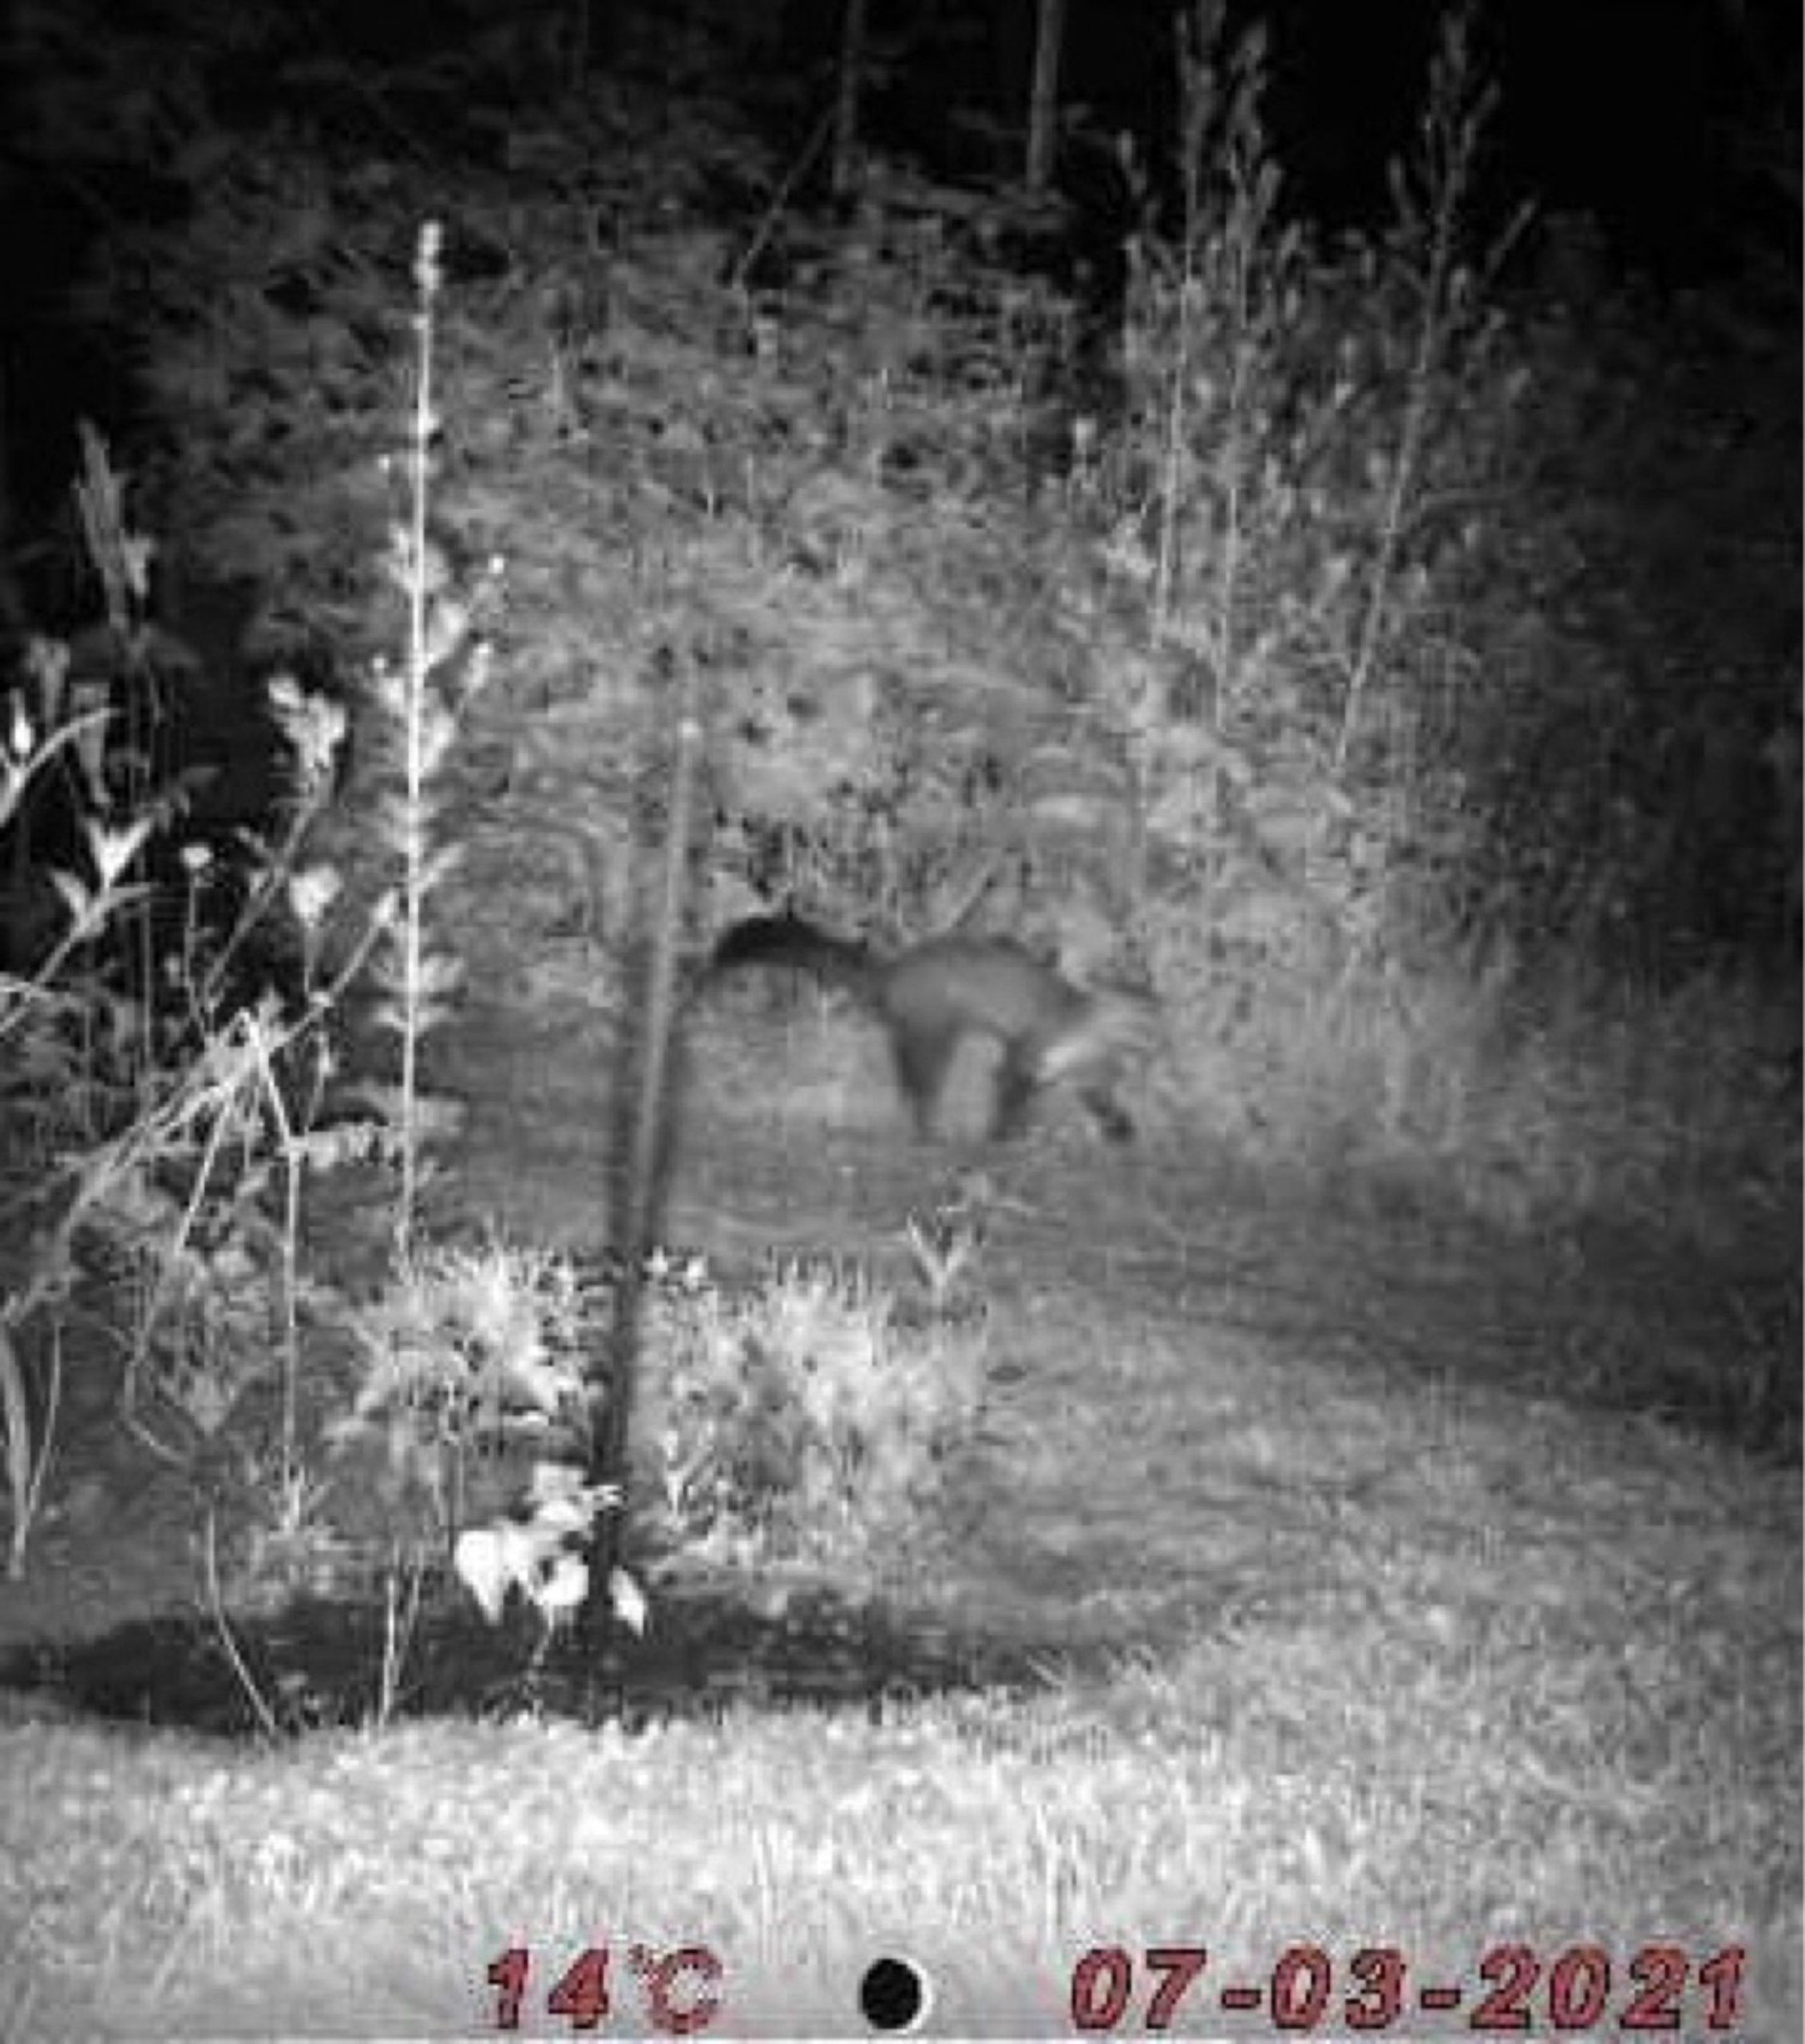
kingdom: Animalia
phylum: Chordata
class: Mammalia
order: Carnivora
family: Mustelidae
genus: Martes
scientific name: Martes foina
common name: Husmår
